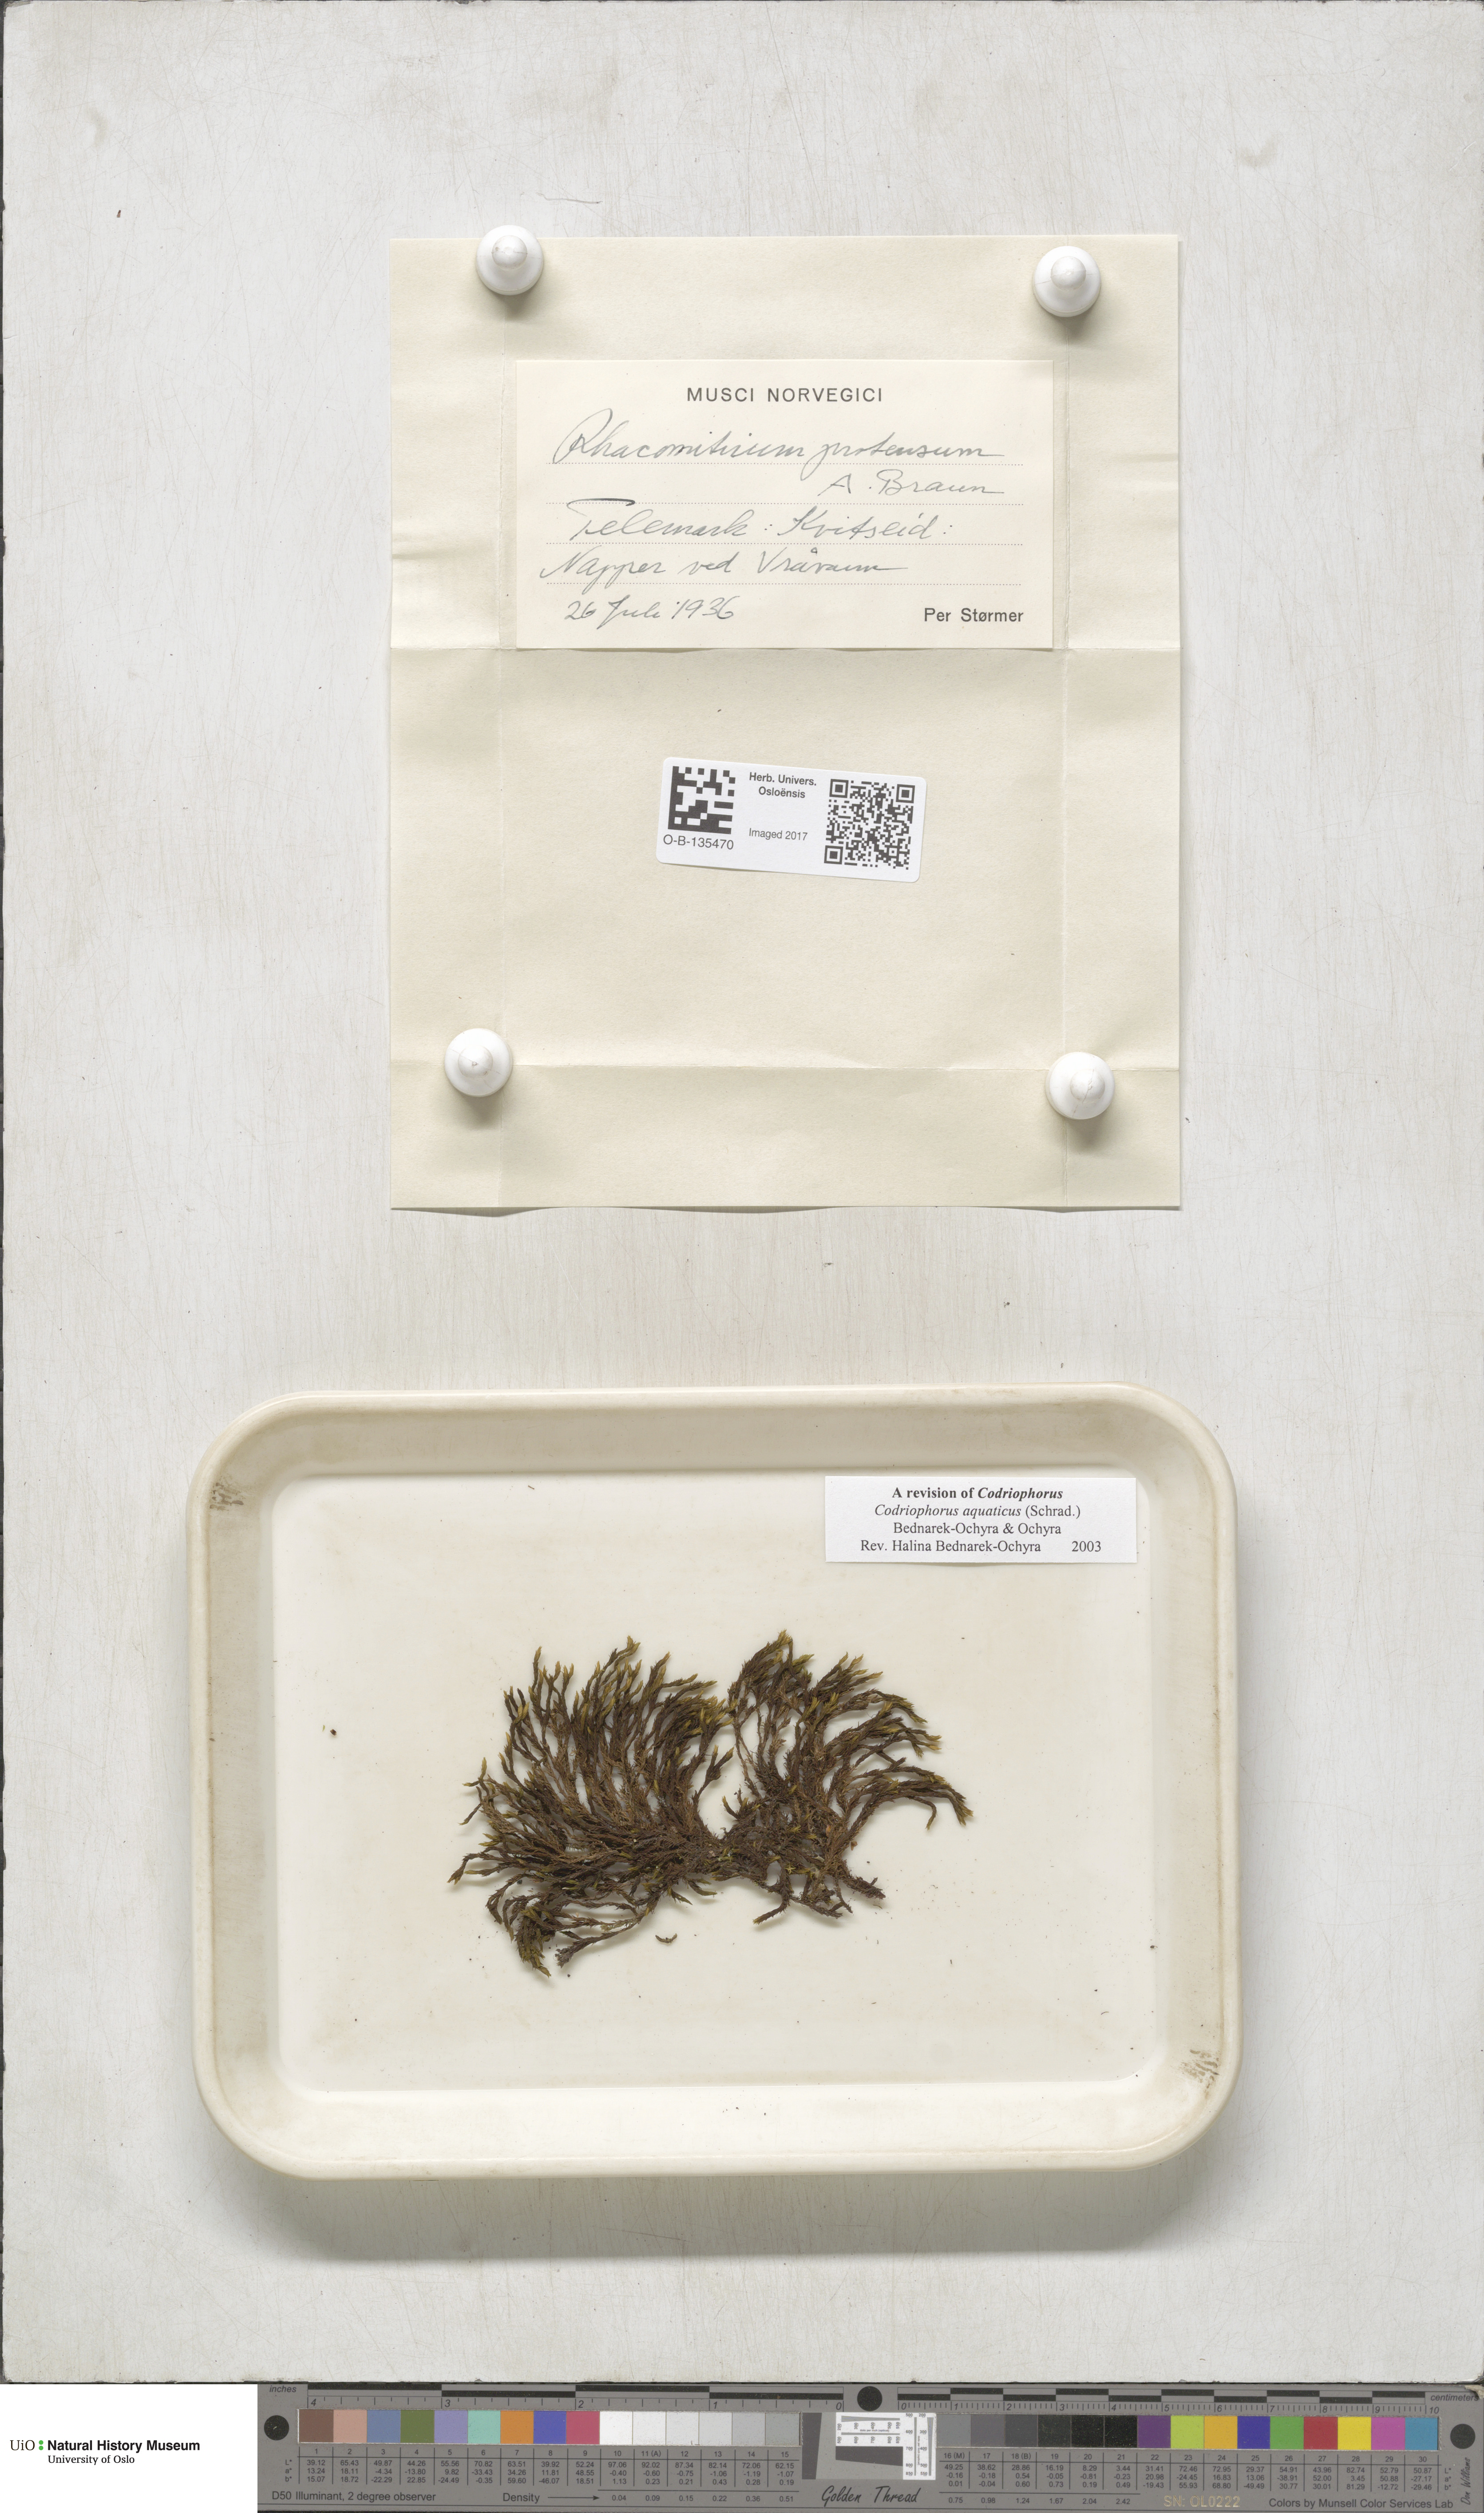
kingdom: Plantae
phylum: Bryophyta
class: Bryopsida
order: Grimmiales
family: Grimmiaceae
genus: Codriophorus
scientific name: Codriophorus aquaticus
